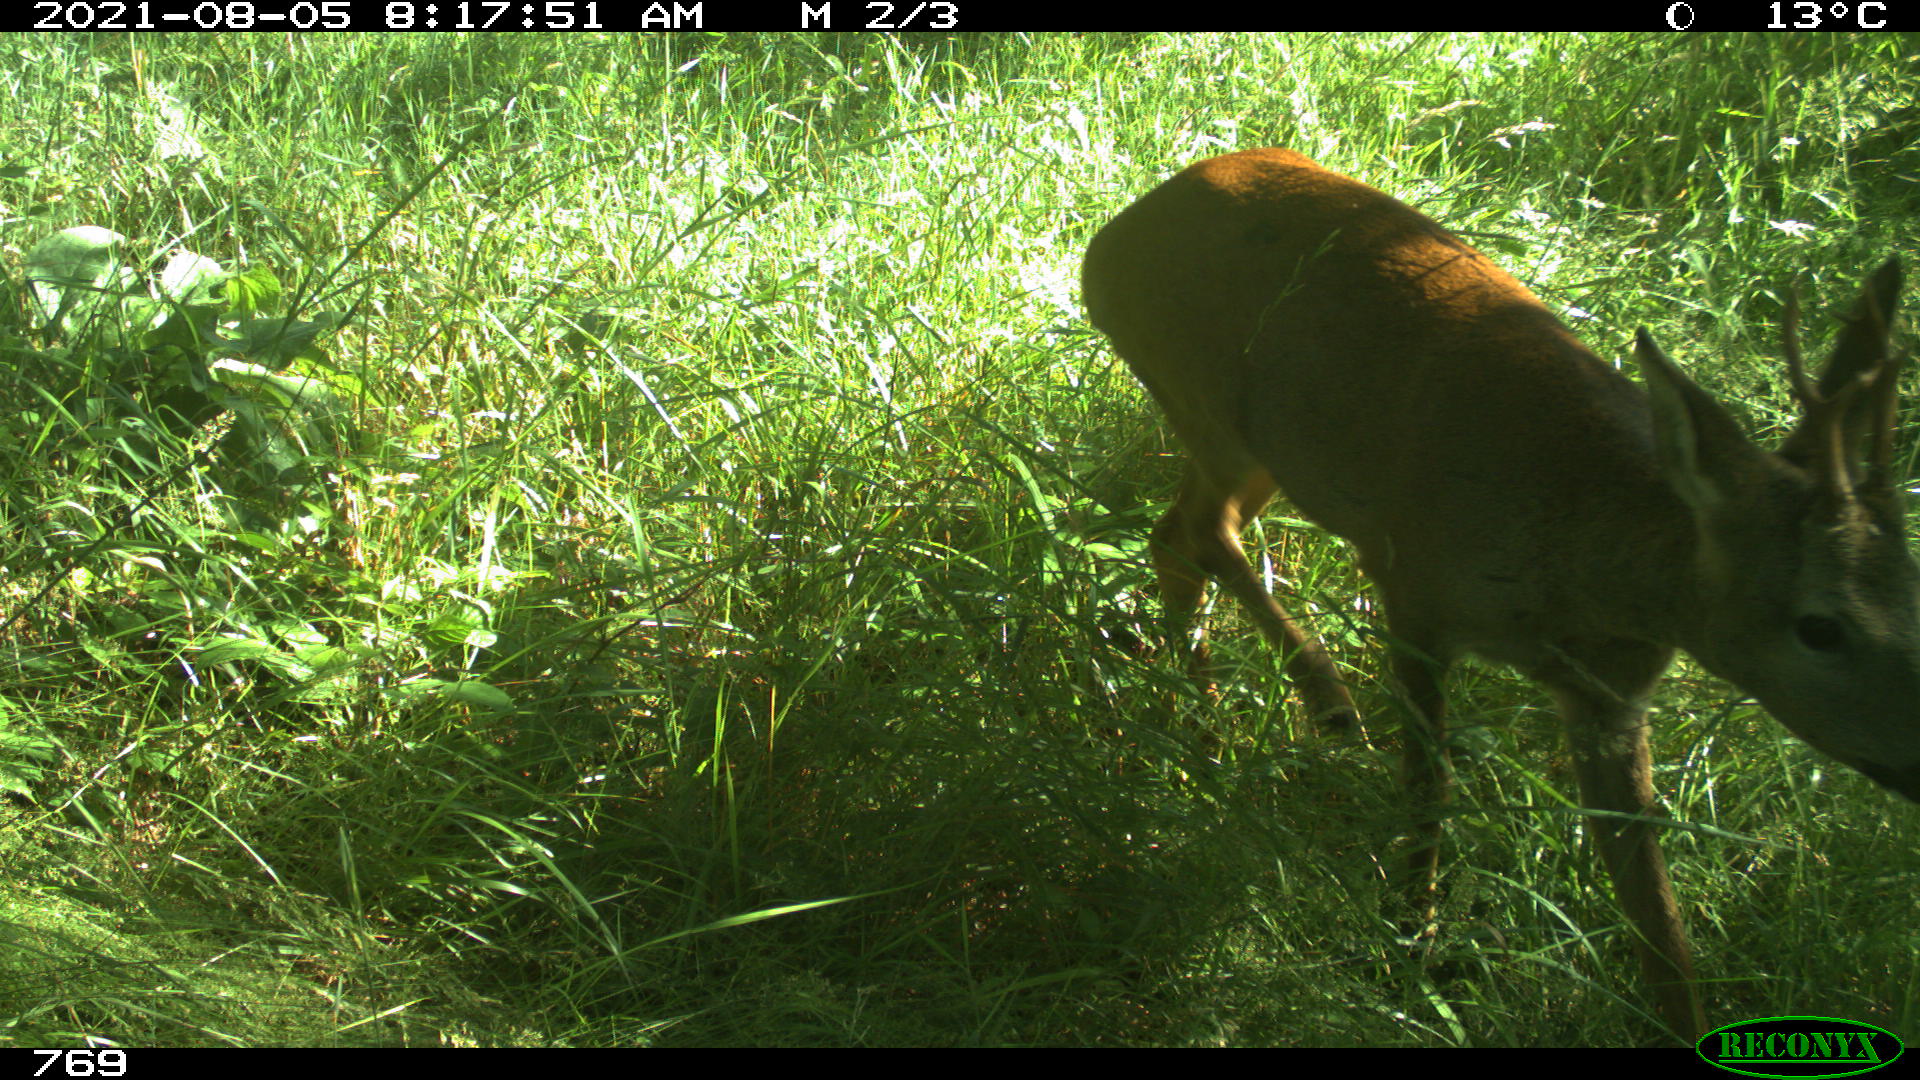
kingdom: Animalia
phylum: Chordata
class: Mammalia
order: Artiodactyla
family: Cervidae
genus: Capreolus
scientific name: Capreolus capreolus
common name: Western roe deer
